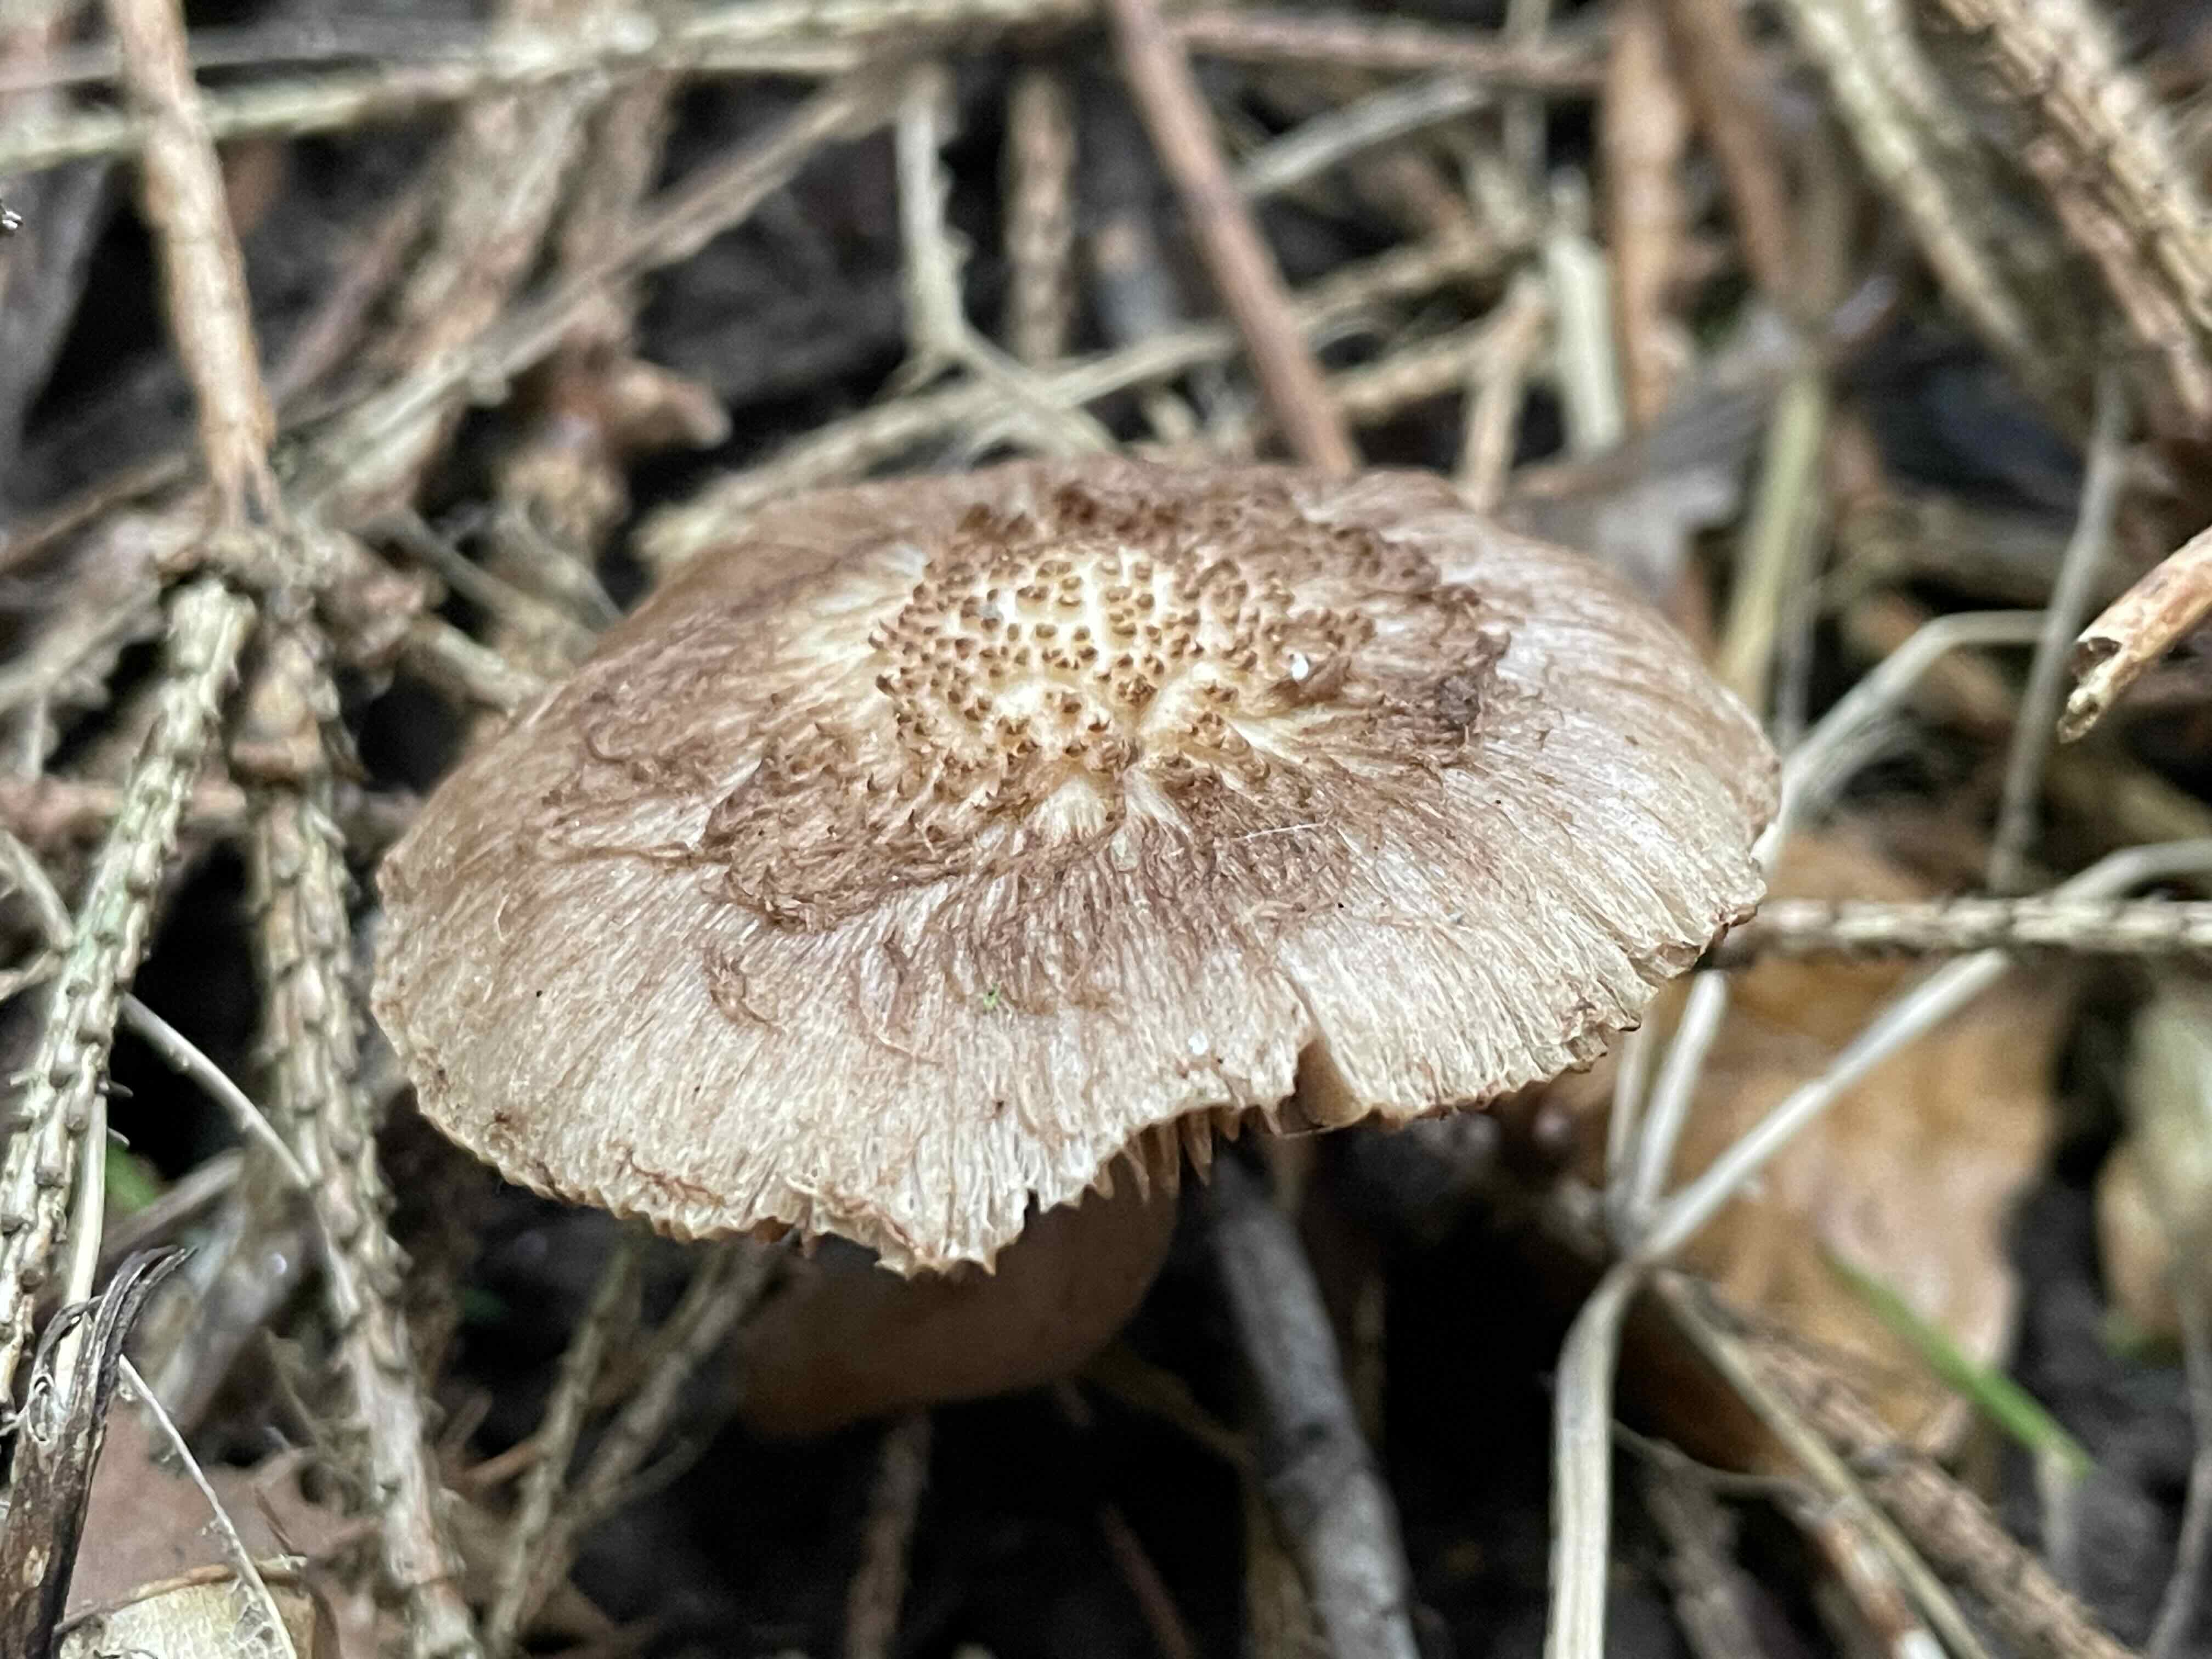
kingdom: Fungi
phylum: Basidiomycota
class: Agaricomycetes
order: Agaricales
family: Inocybaceae
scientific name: Inocybaceae
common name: trævlhatfamilien
